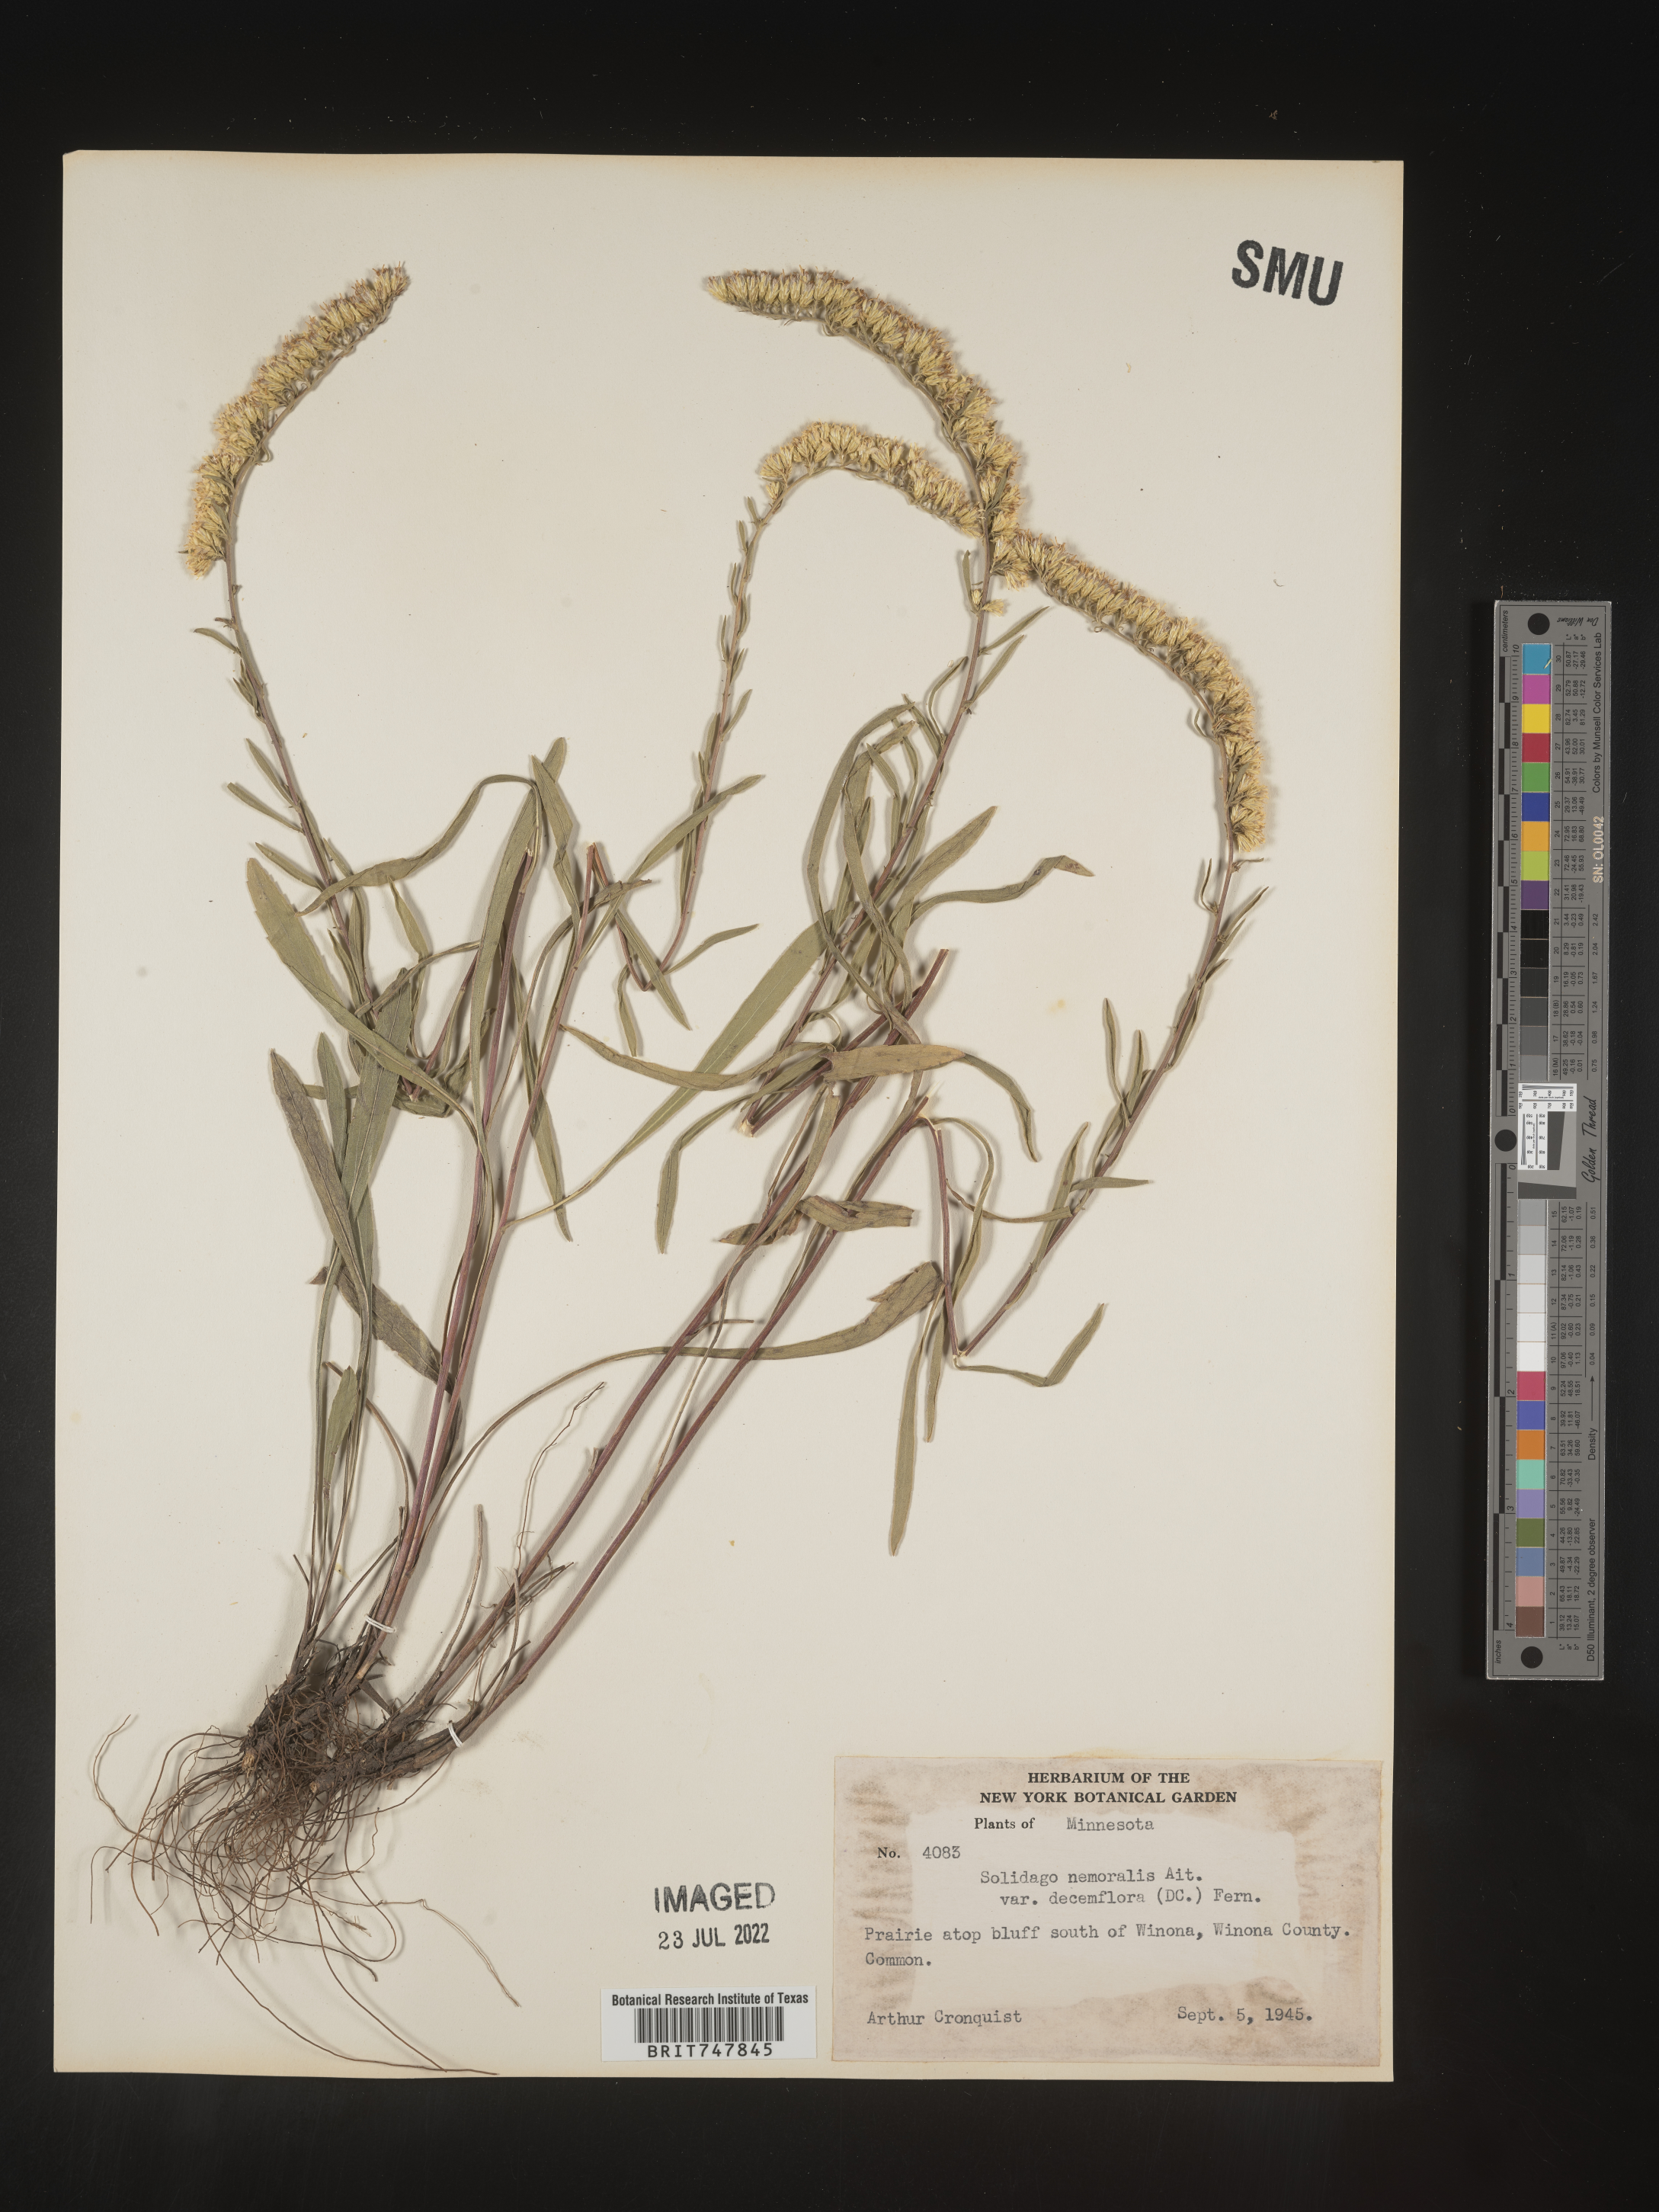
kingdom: Plantae
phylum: Tracheophyta
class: Magnoliopsida
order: Asterales
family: Asteraceae
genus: Solidago
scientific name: Solidago nemoralis
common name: Grey goldenrod
